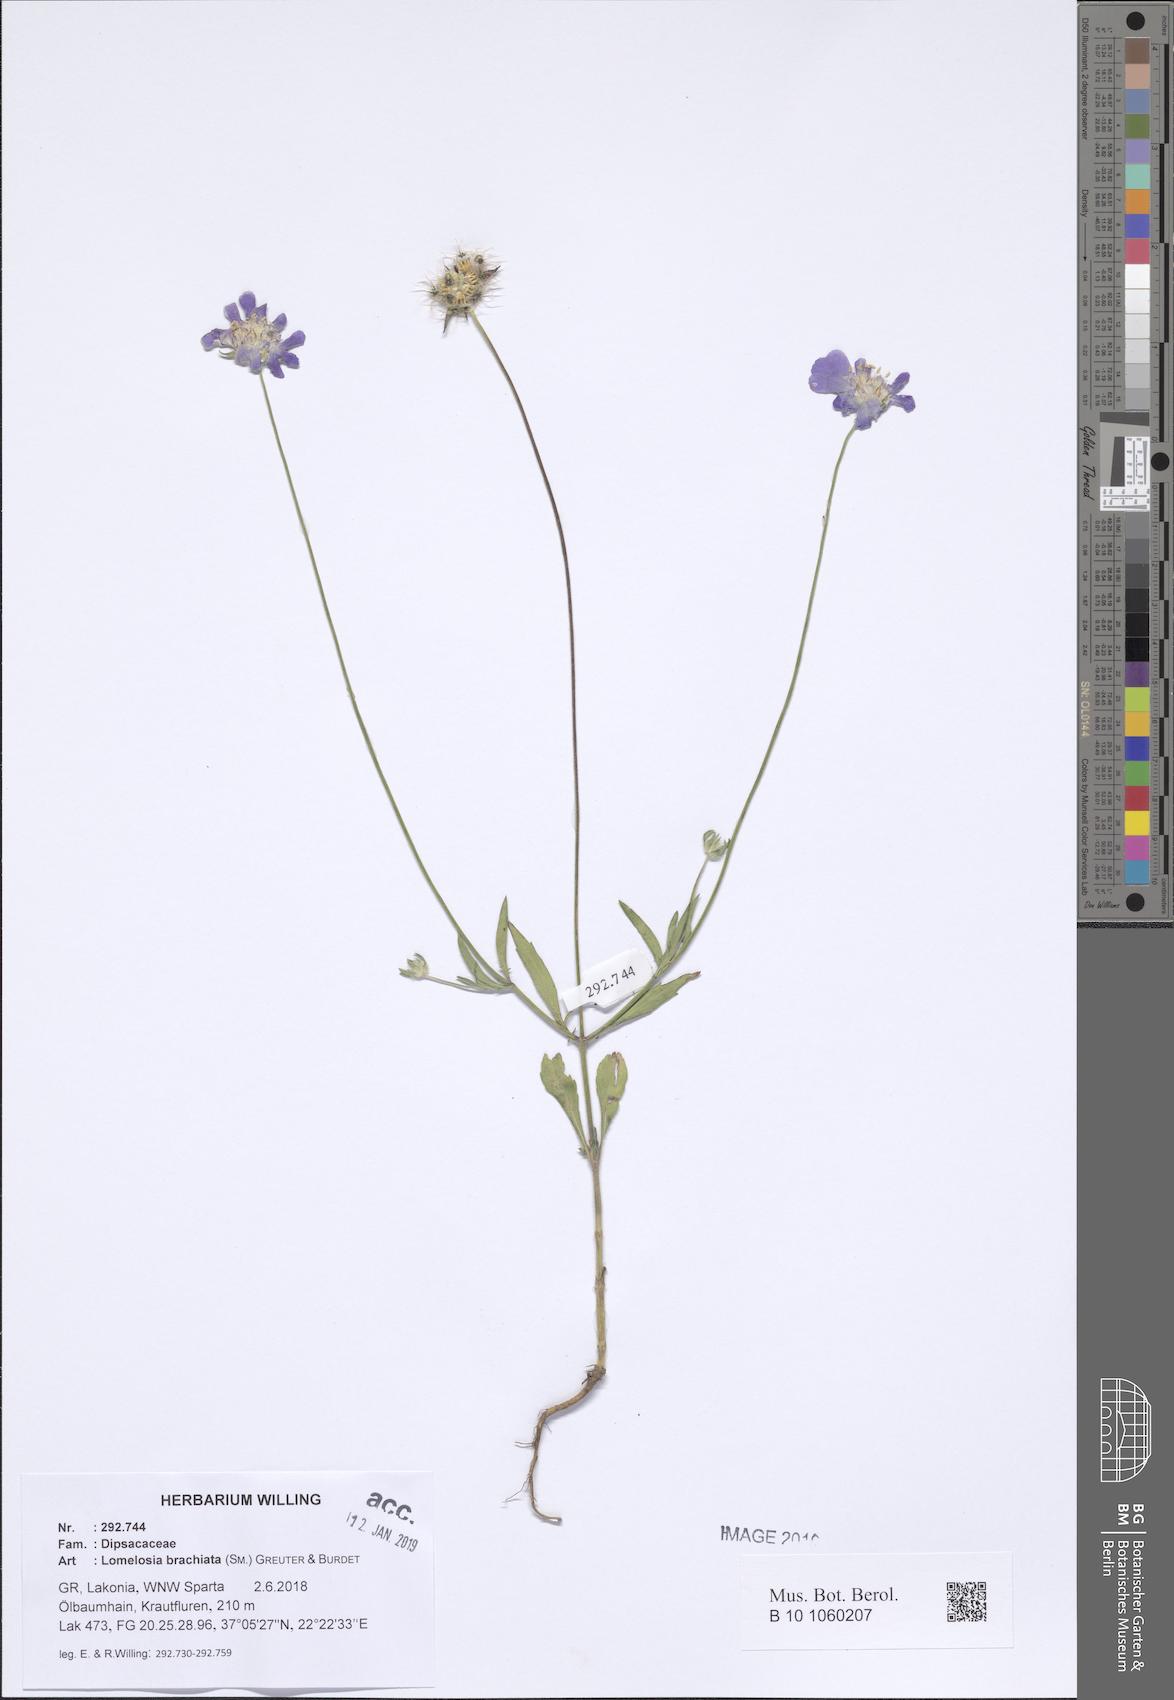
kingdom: Plantae
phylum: Tracheophyta
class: Magnoliopsida
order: Dipsacales
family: Caprifoliaceae
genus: Lomelosia
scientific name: Lomelosia brachiata
